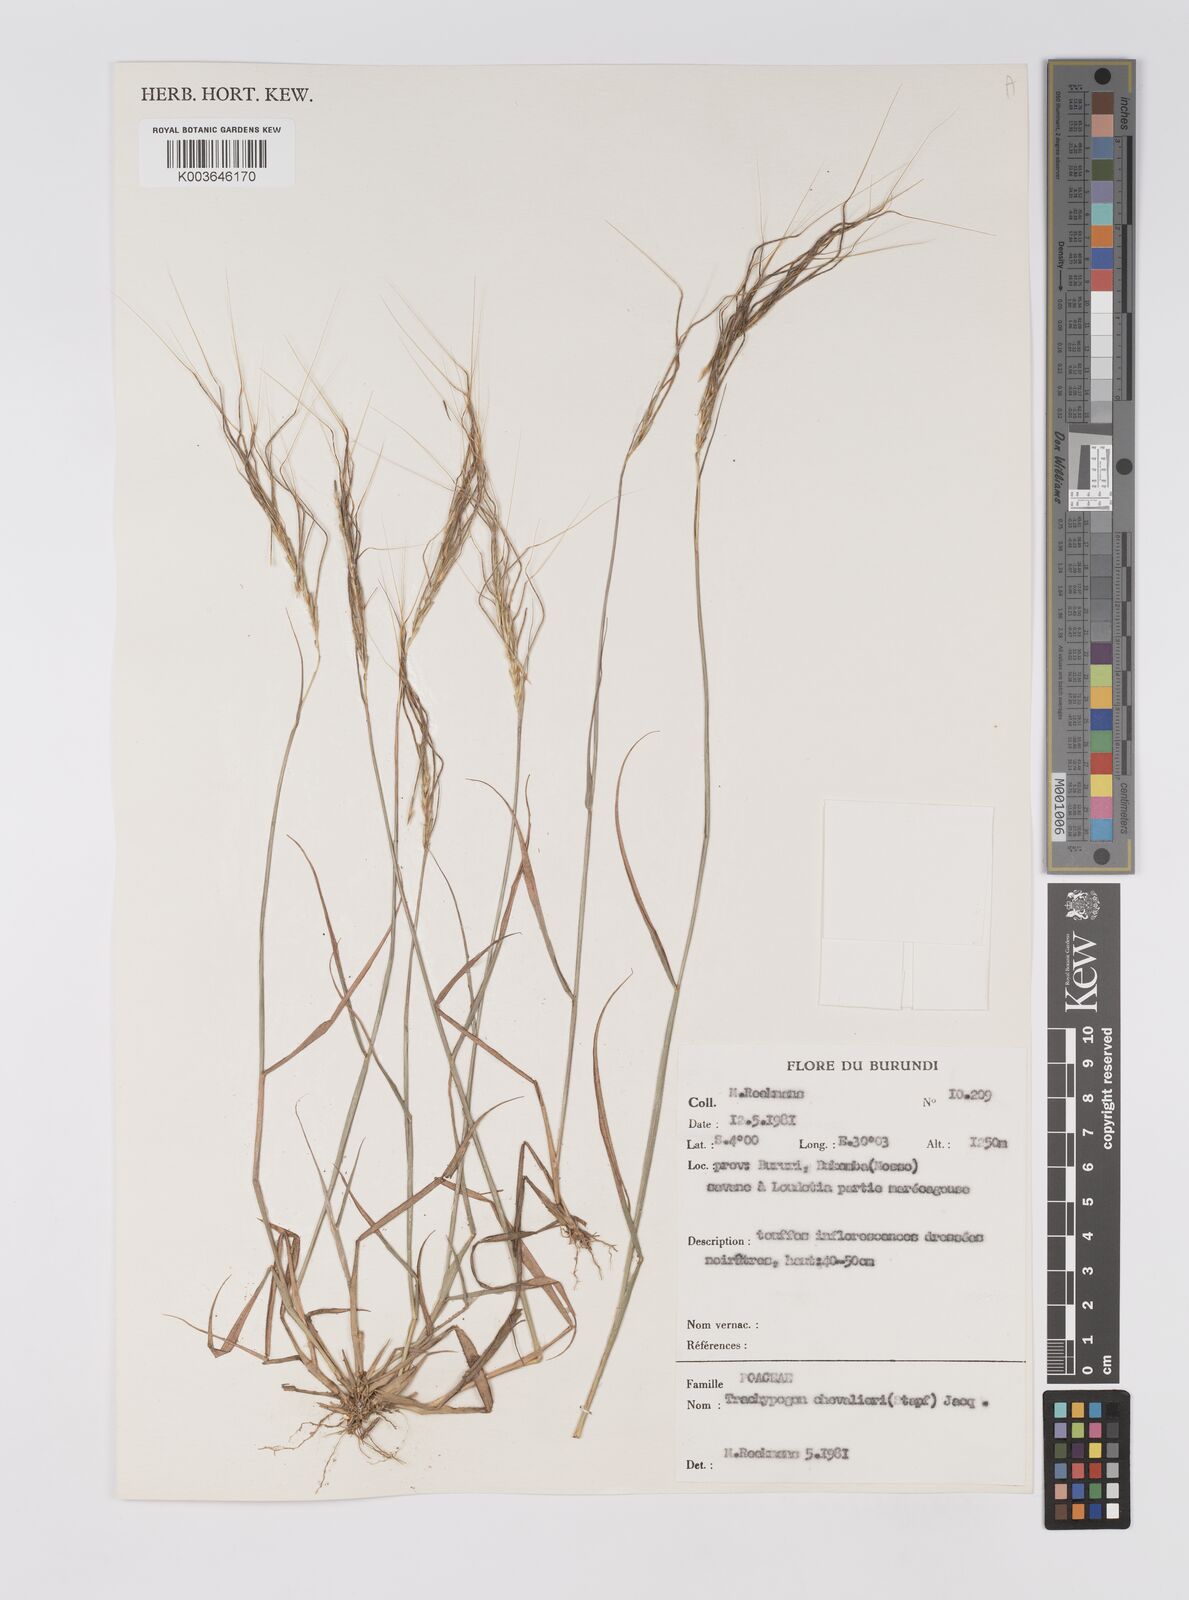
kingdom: Plantae
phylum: Tracheophyta
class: Liliopsida
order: Poales
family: Poaceae
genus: Trachypogon
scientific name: Trachypogon chevalieri
